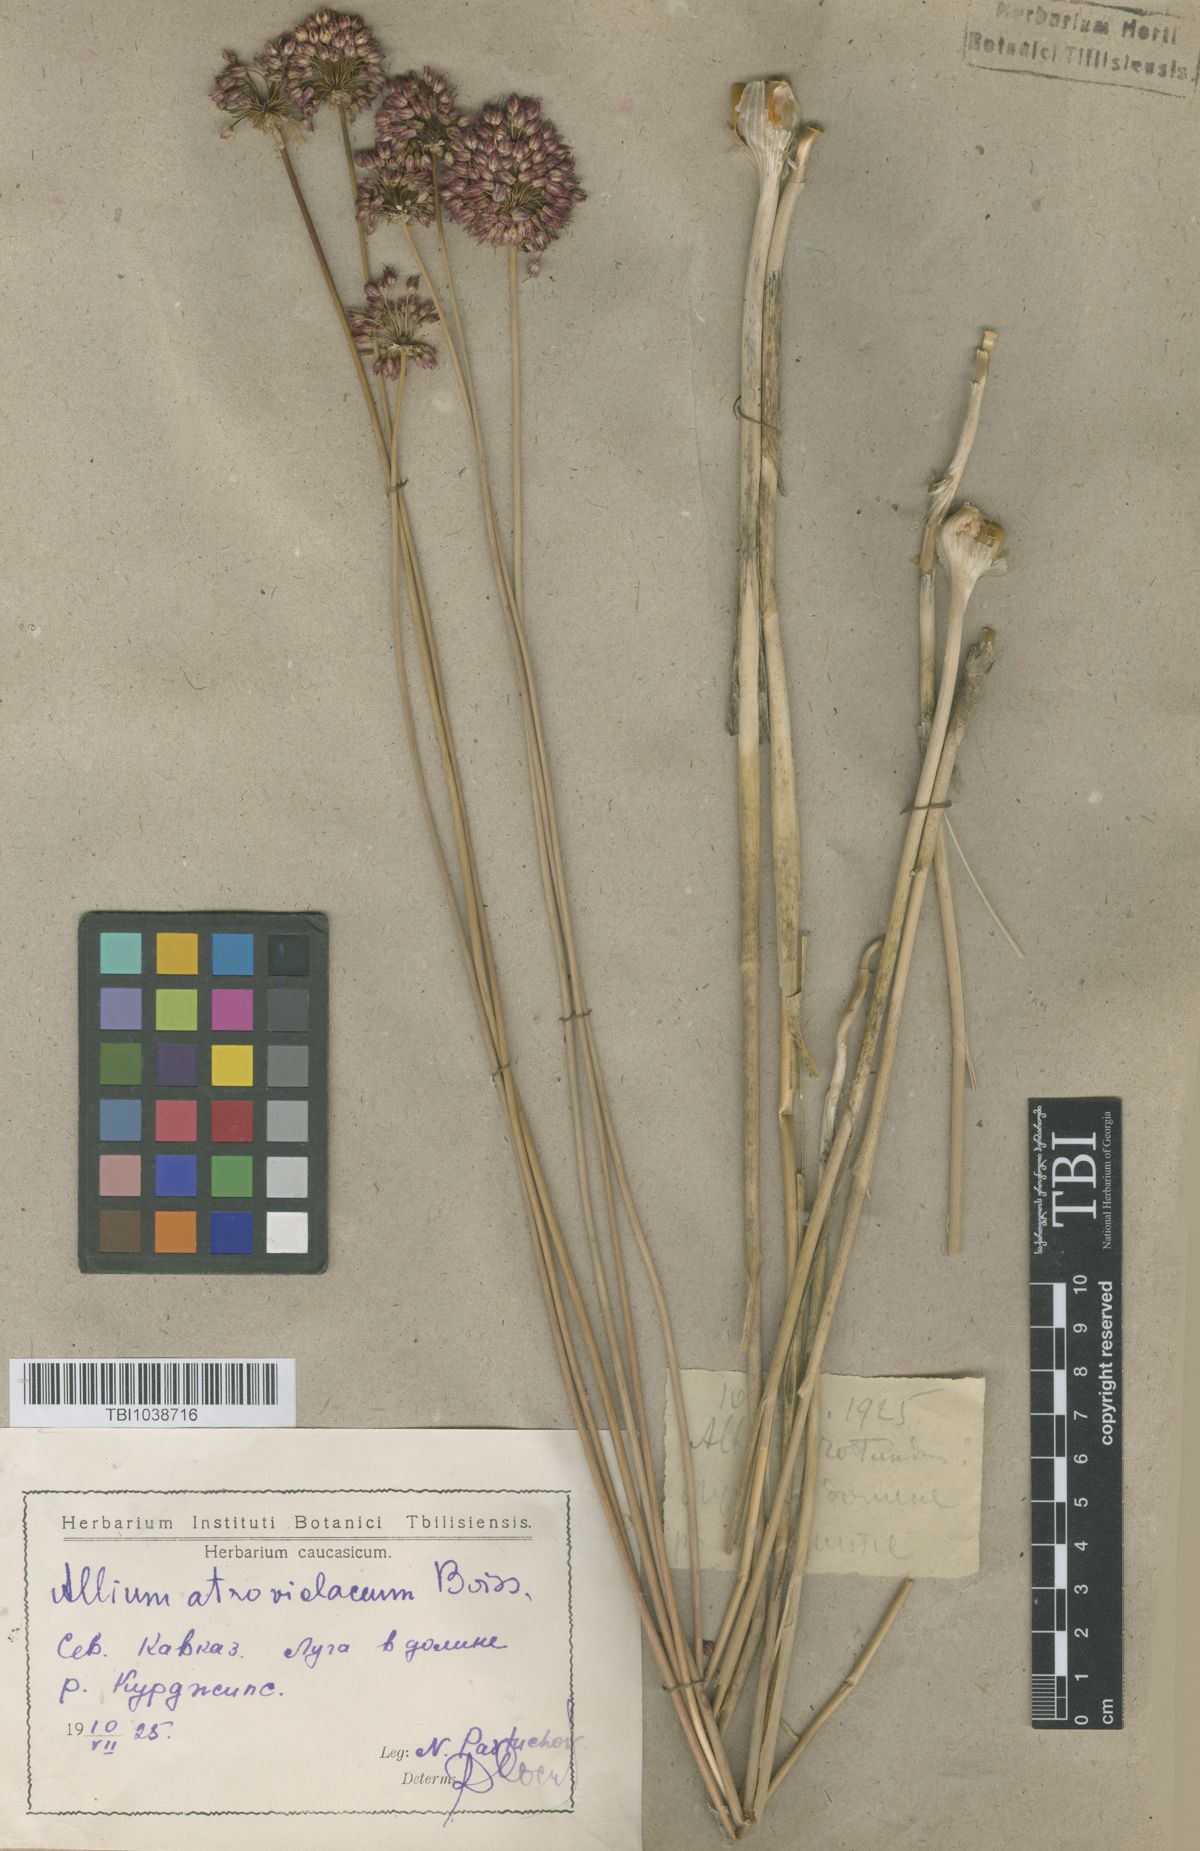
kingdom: Plantae
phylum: Tracheophyta
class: Liliopsida
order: Asparagales
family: Amaryllidaceae
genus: Allium
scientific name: Allium atroviolaceum
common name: Broadleaf wild leek
